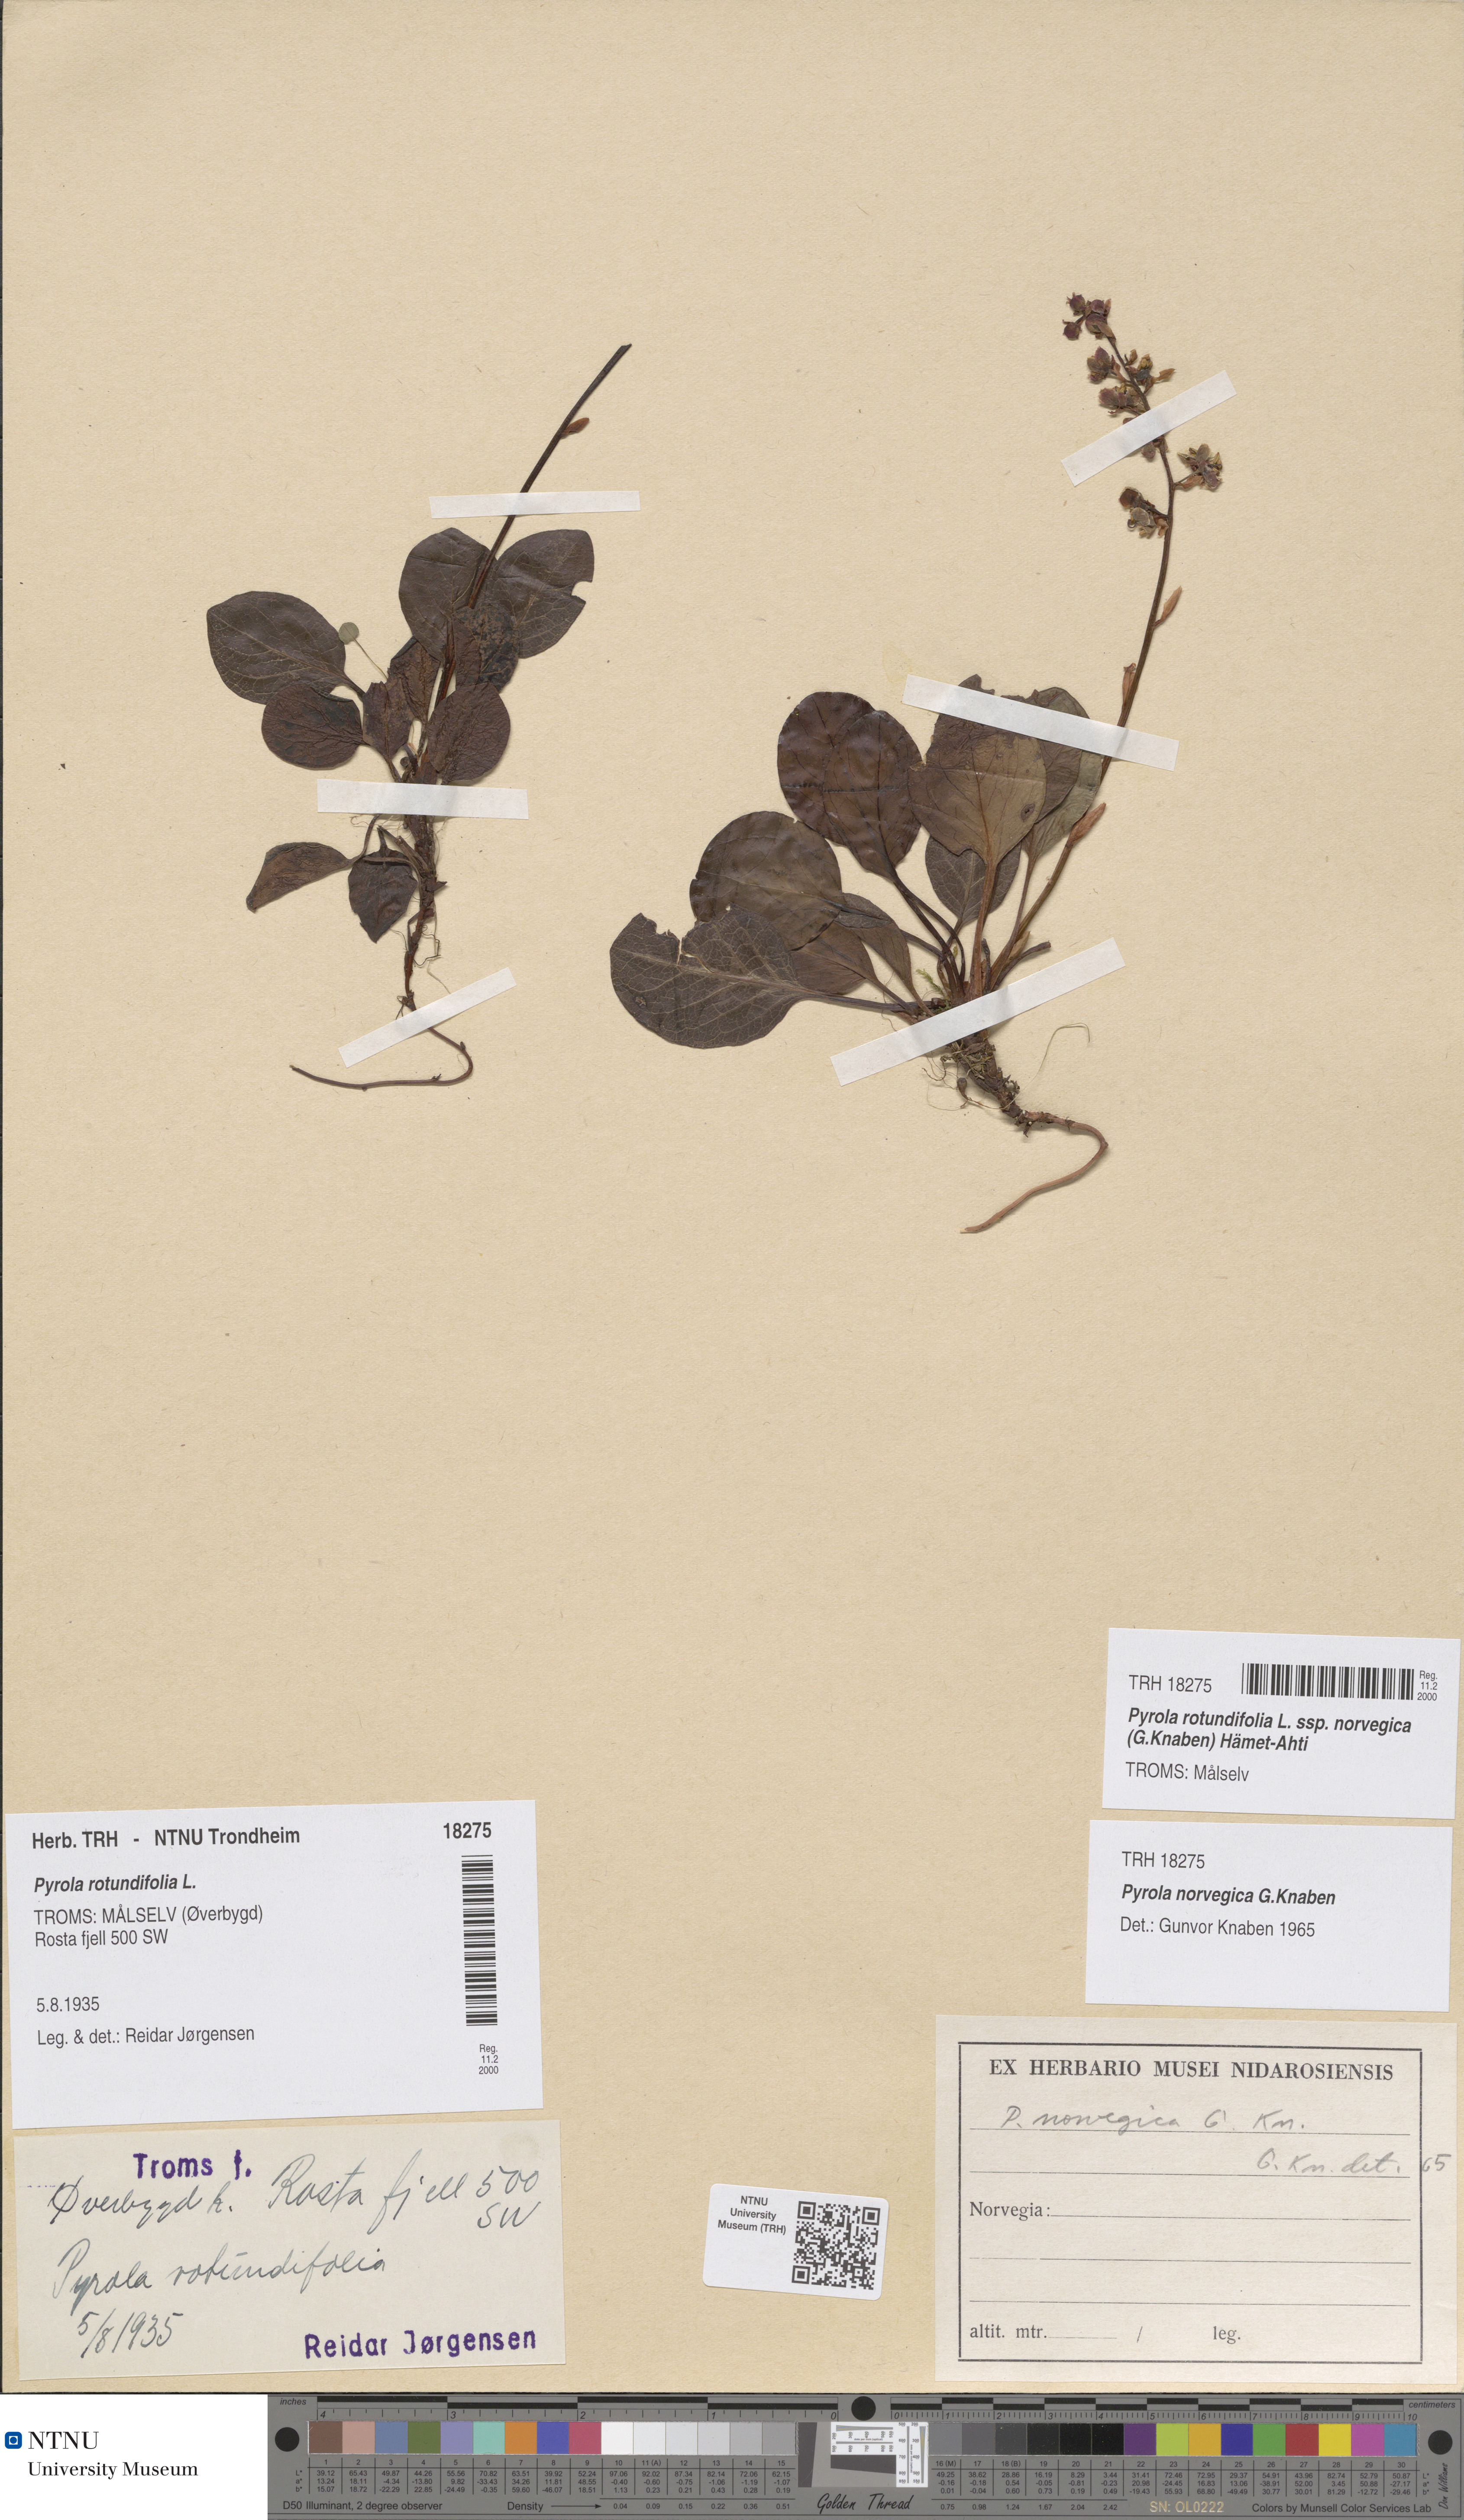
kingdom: Plantae
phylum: Tracheophyta
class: Magnoliopsida
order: Ericales
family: Ericaceae
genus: Pyrola
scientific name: Pyrola rotundifolia
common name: Round-leaved wintergreen
